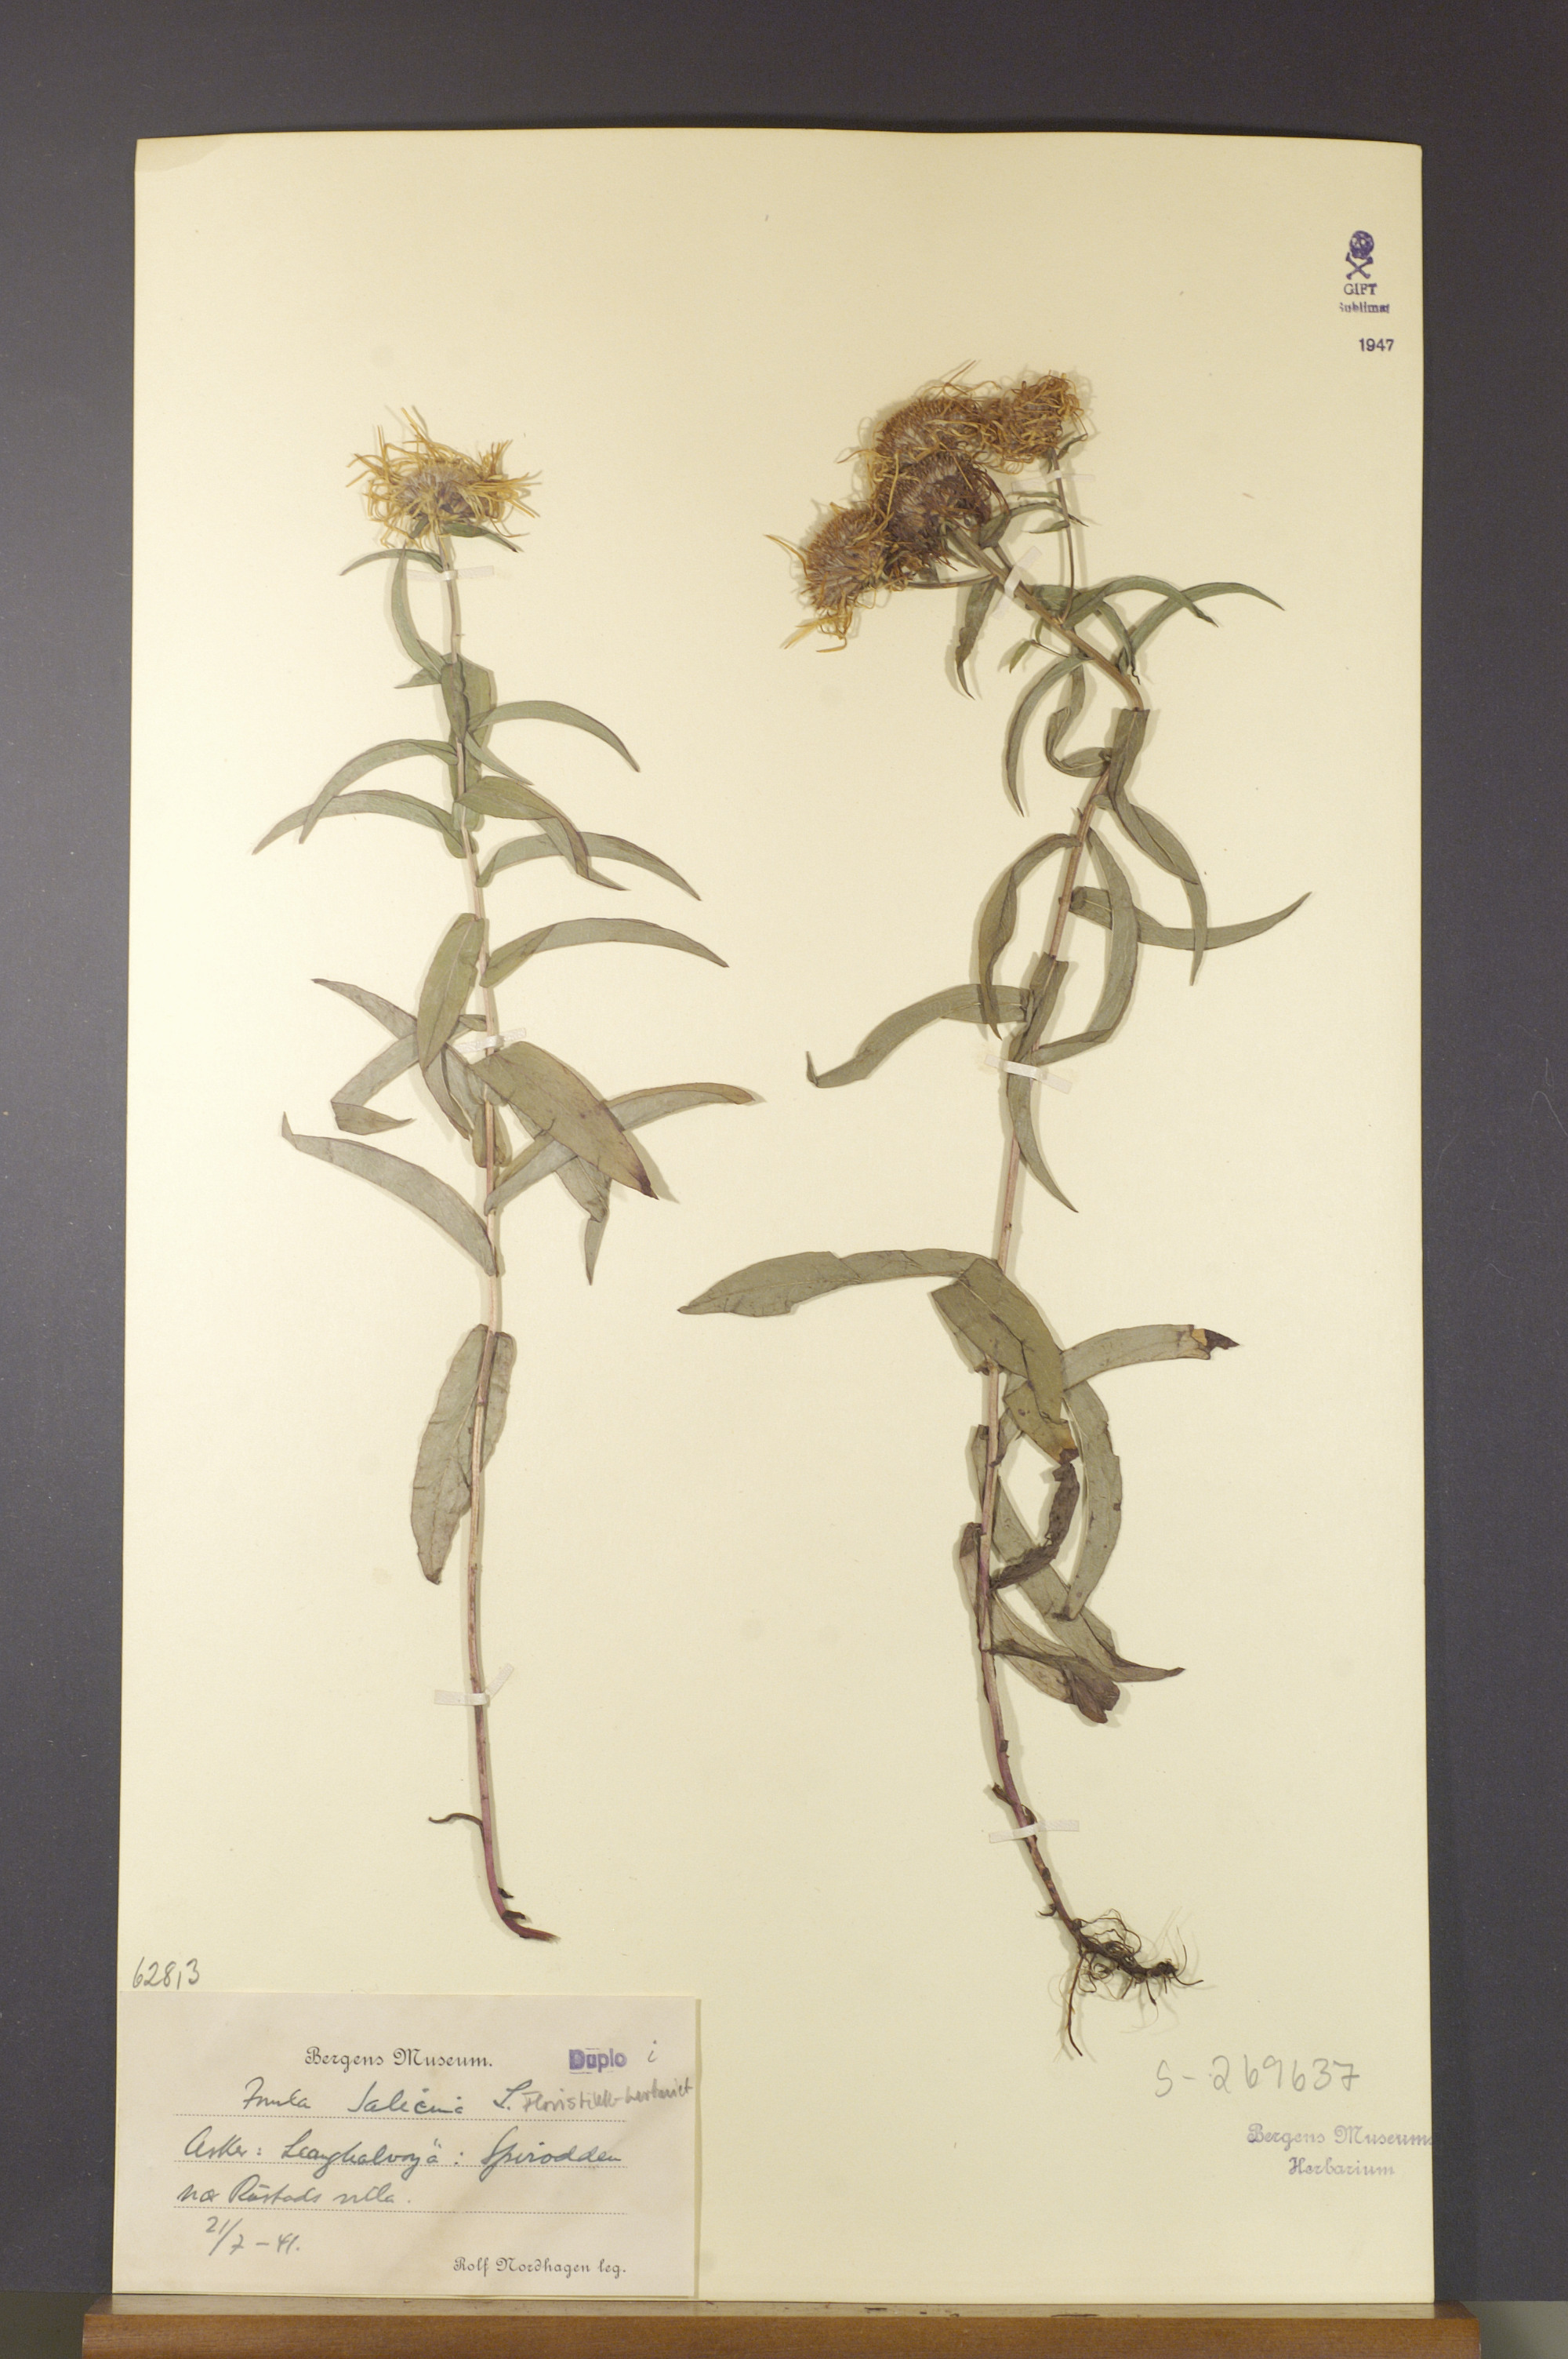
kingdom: Plantae
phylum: Tracheophyta
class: Magnoliopsida
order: Asterales
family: Asteraceae
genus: Pentanema
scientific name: Pentanema salicinum
